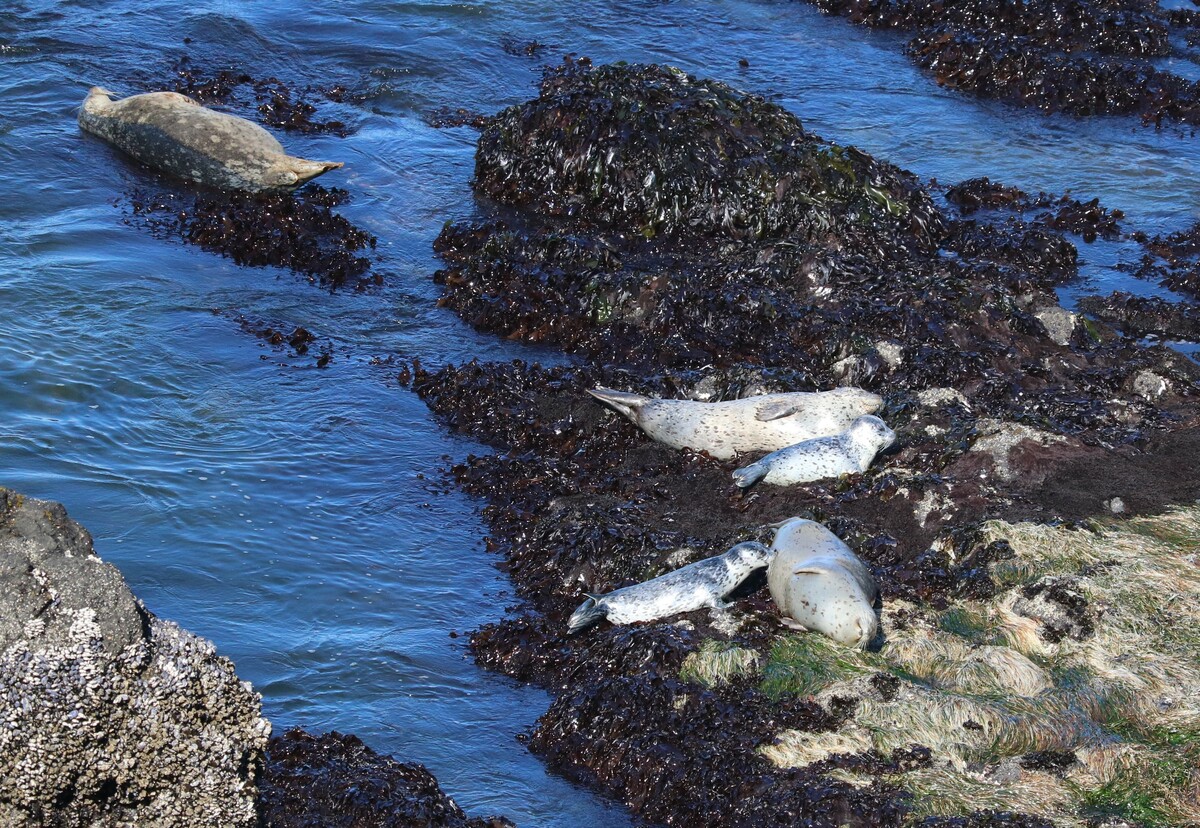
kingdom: Animalia
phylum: Chordata
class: Mammalia
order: Carnivora
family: Phocidae
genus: Phoca
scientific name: Phoca vitulina
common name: Harbor seal
